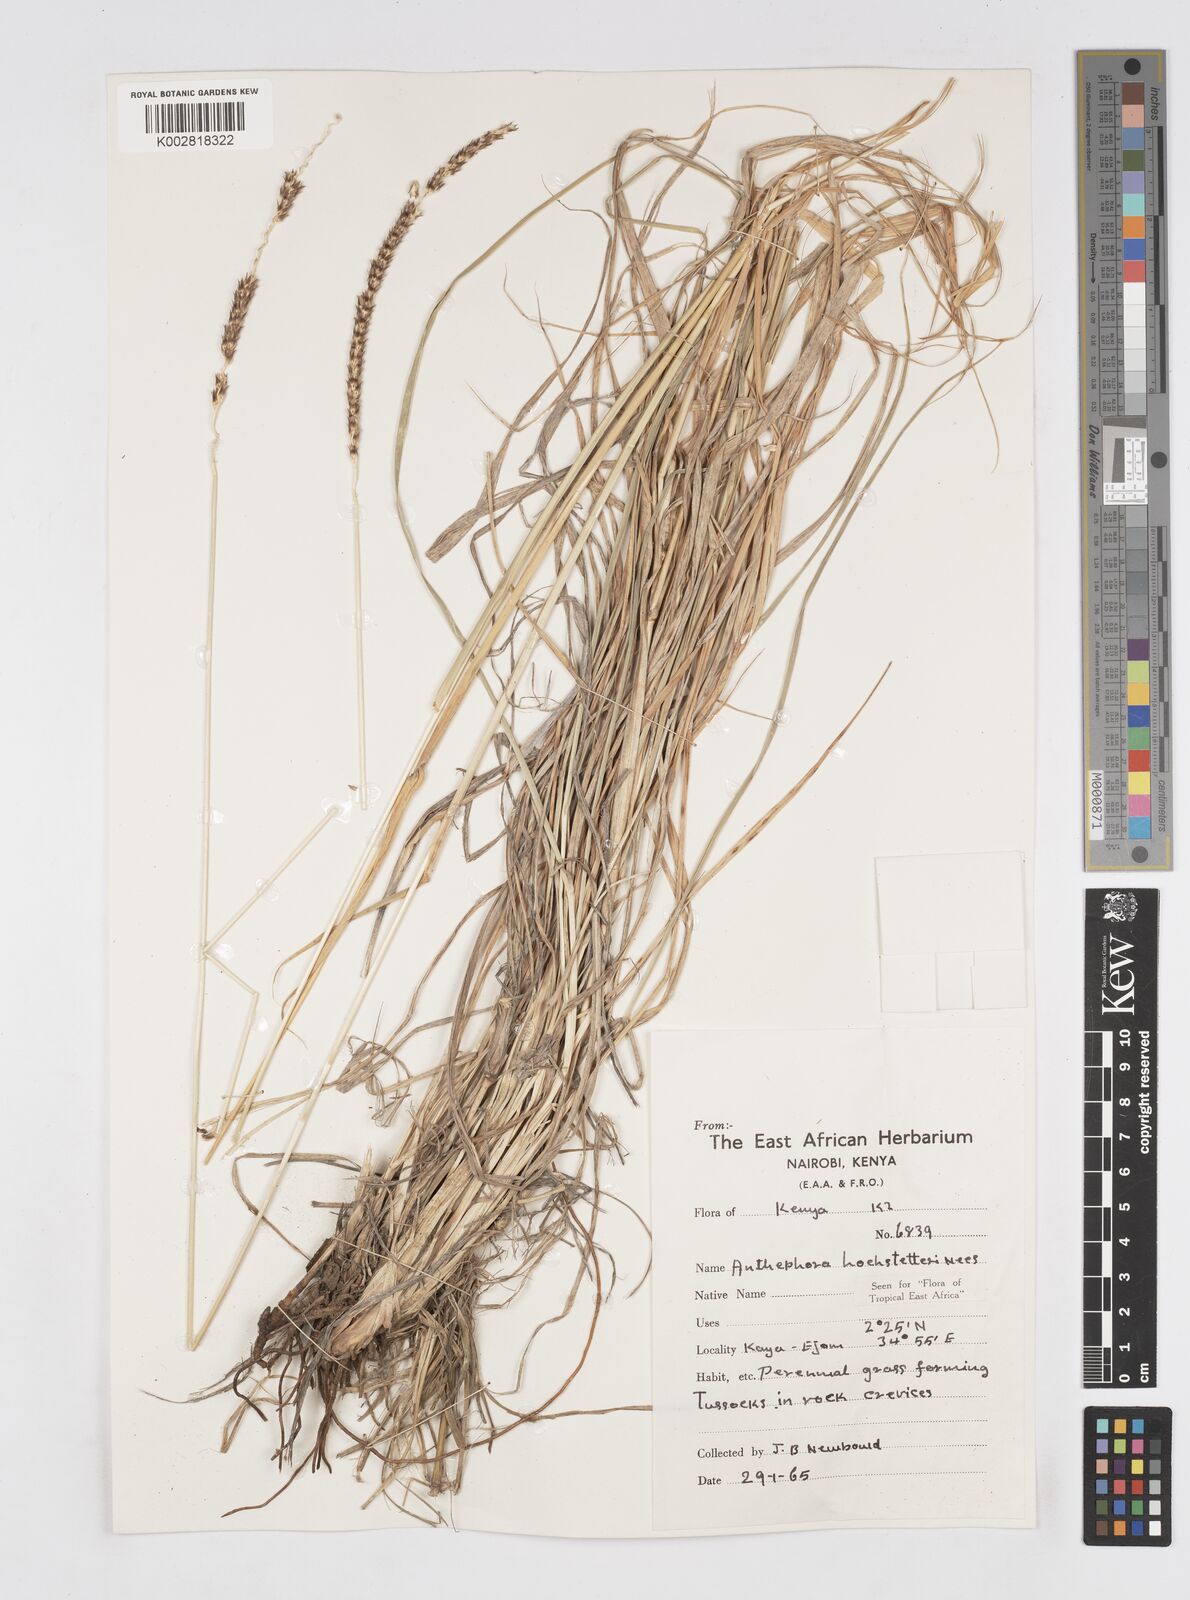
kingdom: Plantae
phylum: Tracheophyta
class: Liliopsida
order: Poales
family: Poaceae
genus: Anthephora
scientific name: Anthephora pubescens
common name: Wool grass
